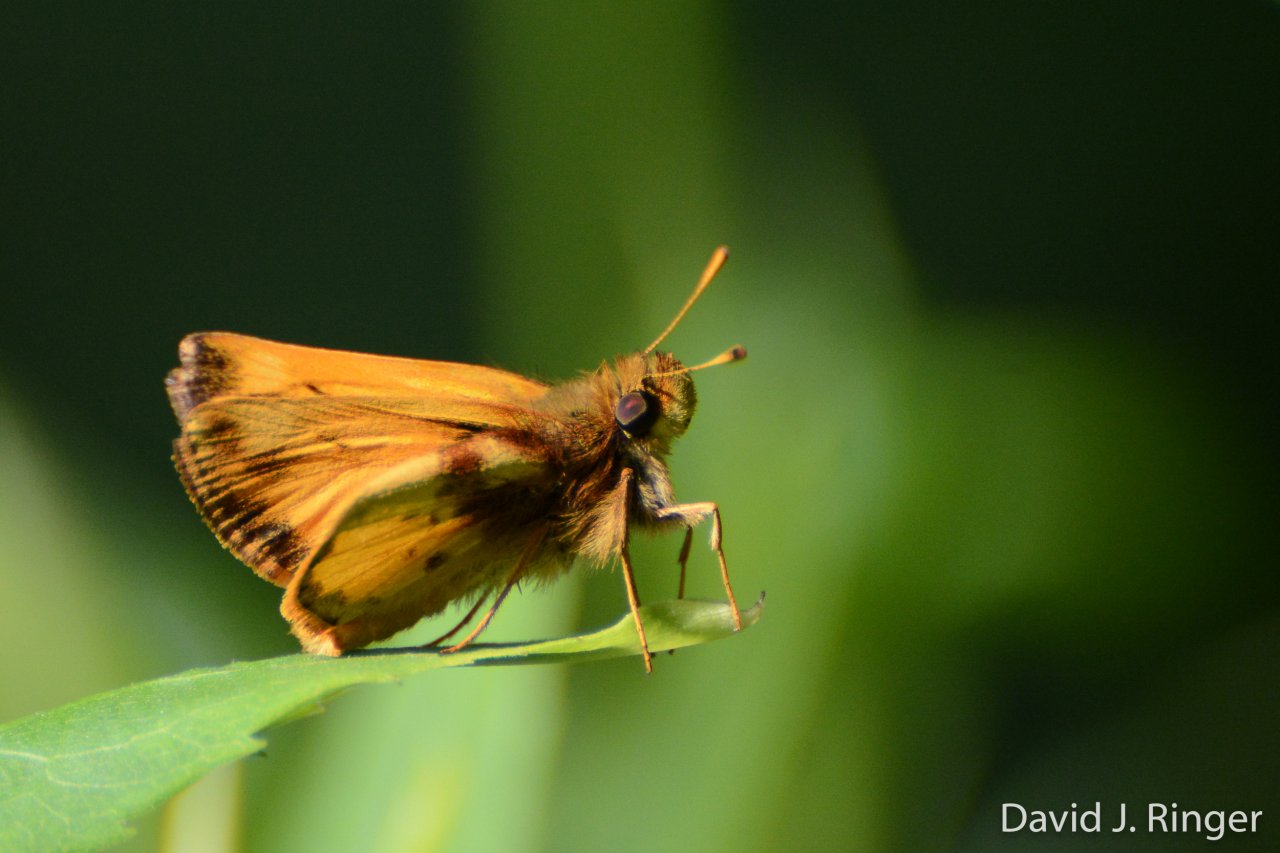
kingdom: Animalia
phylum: Arthropoda
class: Insecta
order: Lepidoptera
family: Hesperiidae
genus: Lon
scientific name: Lon zabulon
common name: Zabulon Skipper
